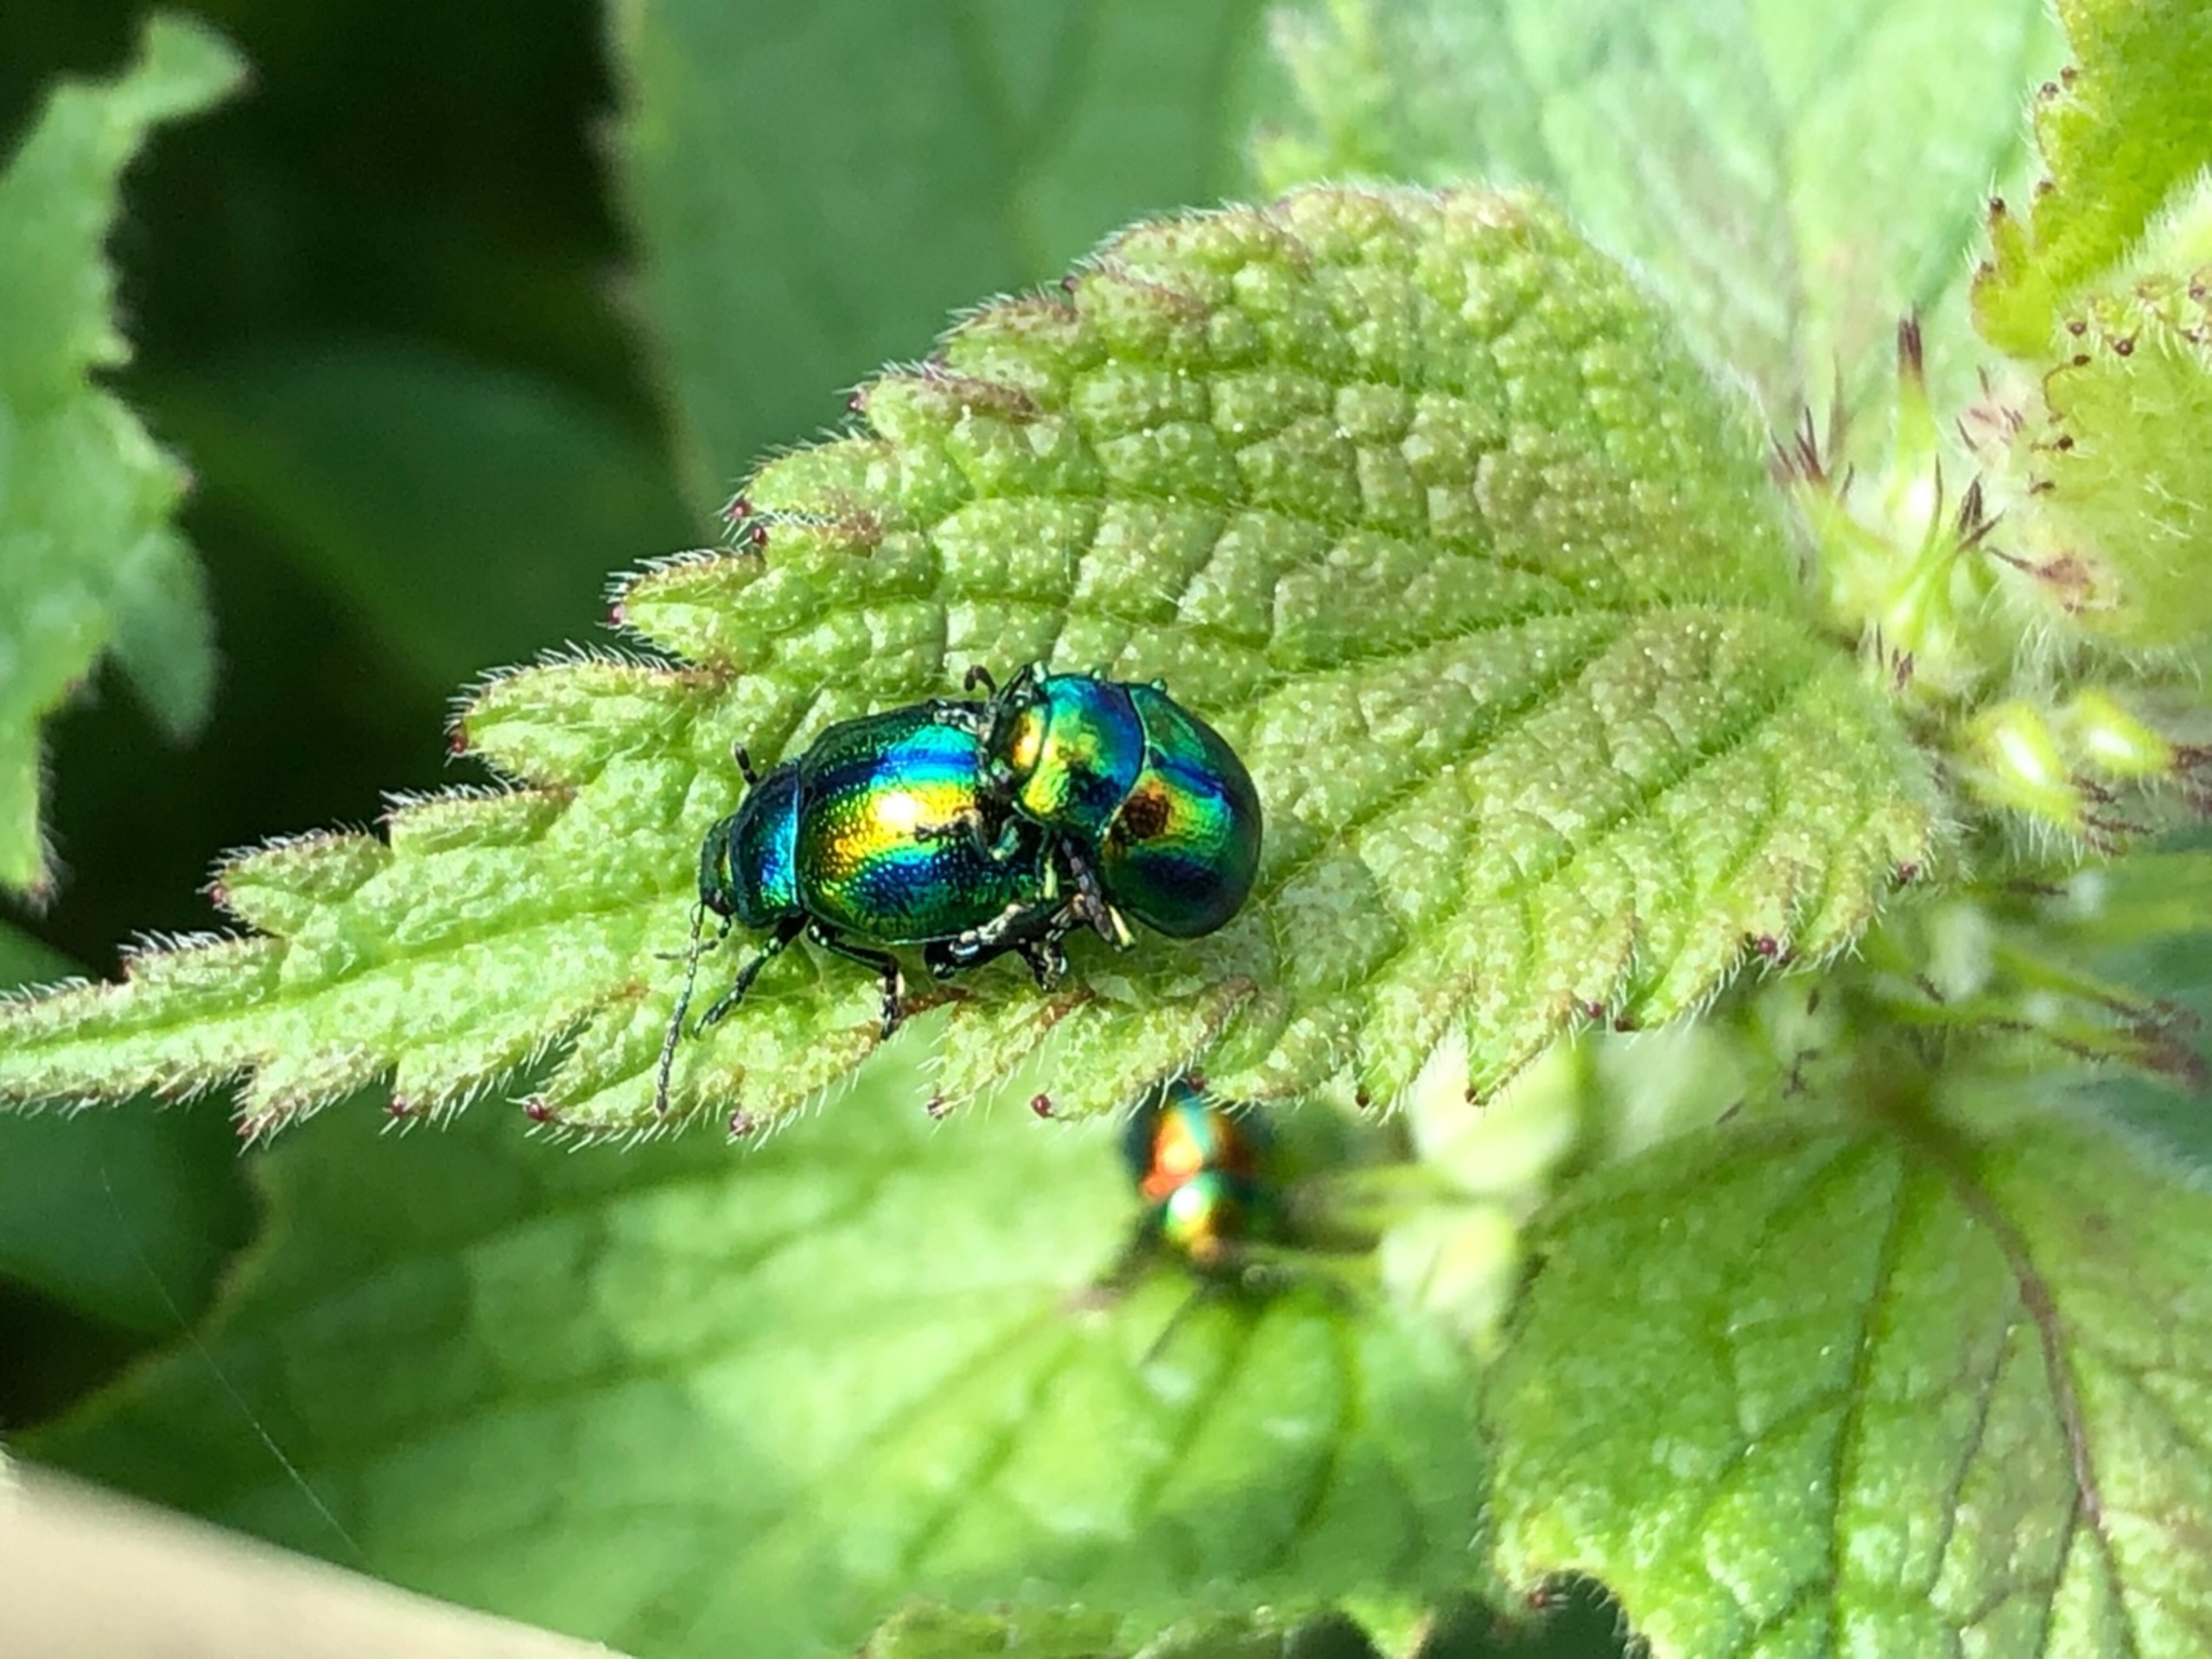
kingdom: Animalia
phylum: Arthropoda
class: Insecta
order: Coleoptera
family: Chrysomelidae
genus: Chrysolina
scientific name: Chrysolina fastuosa
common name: Tvetandbladbille
